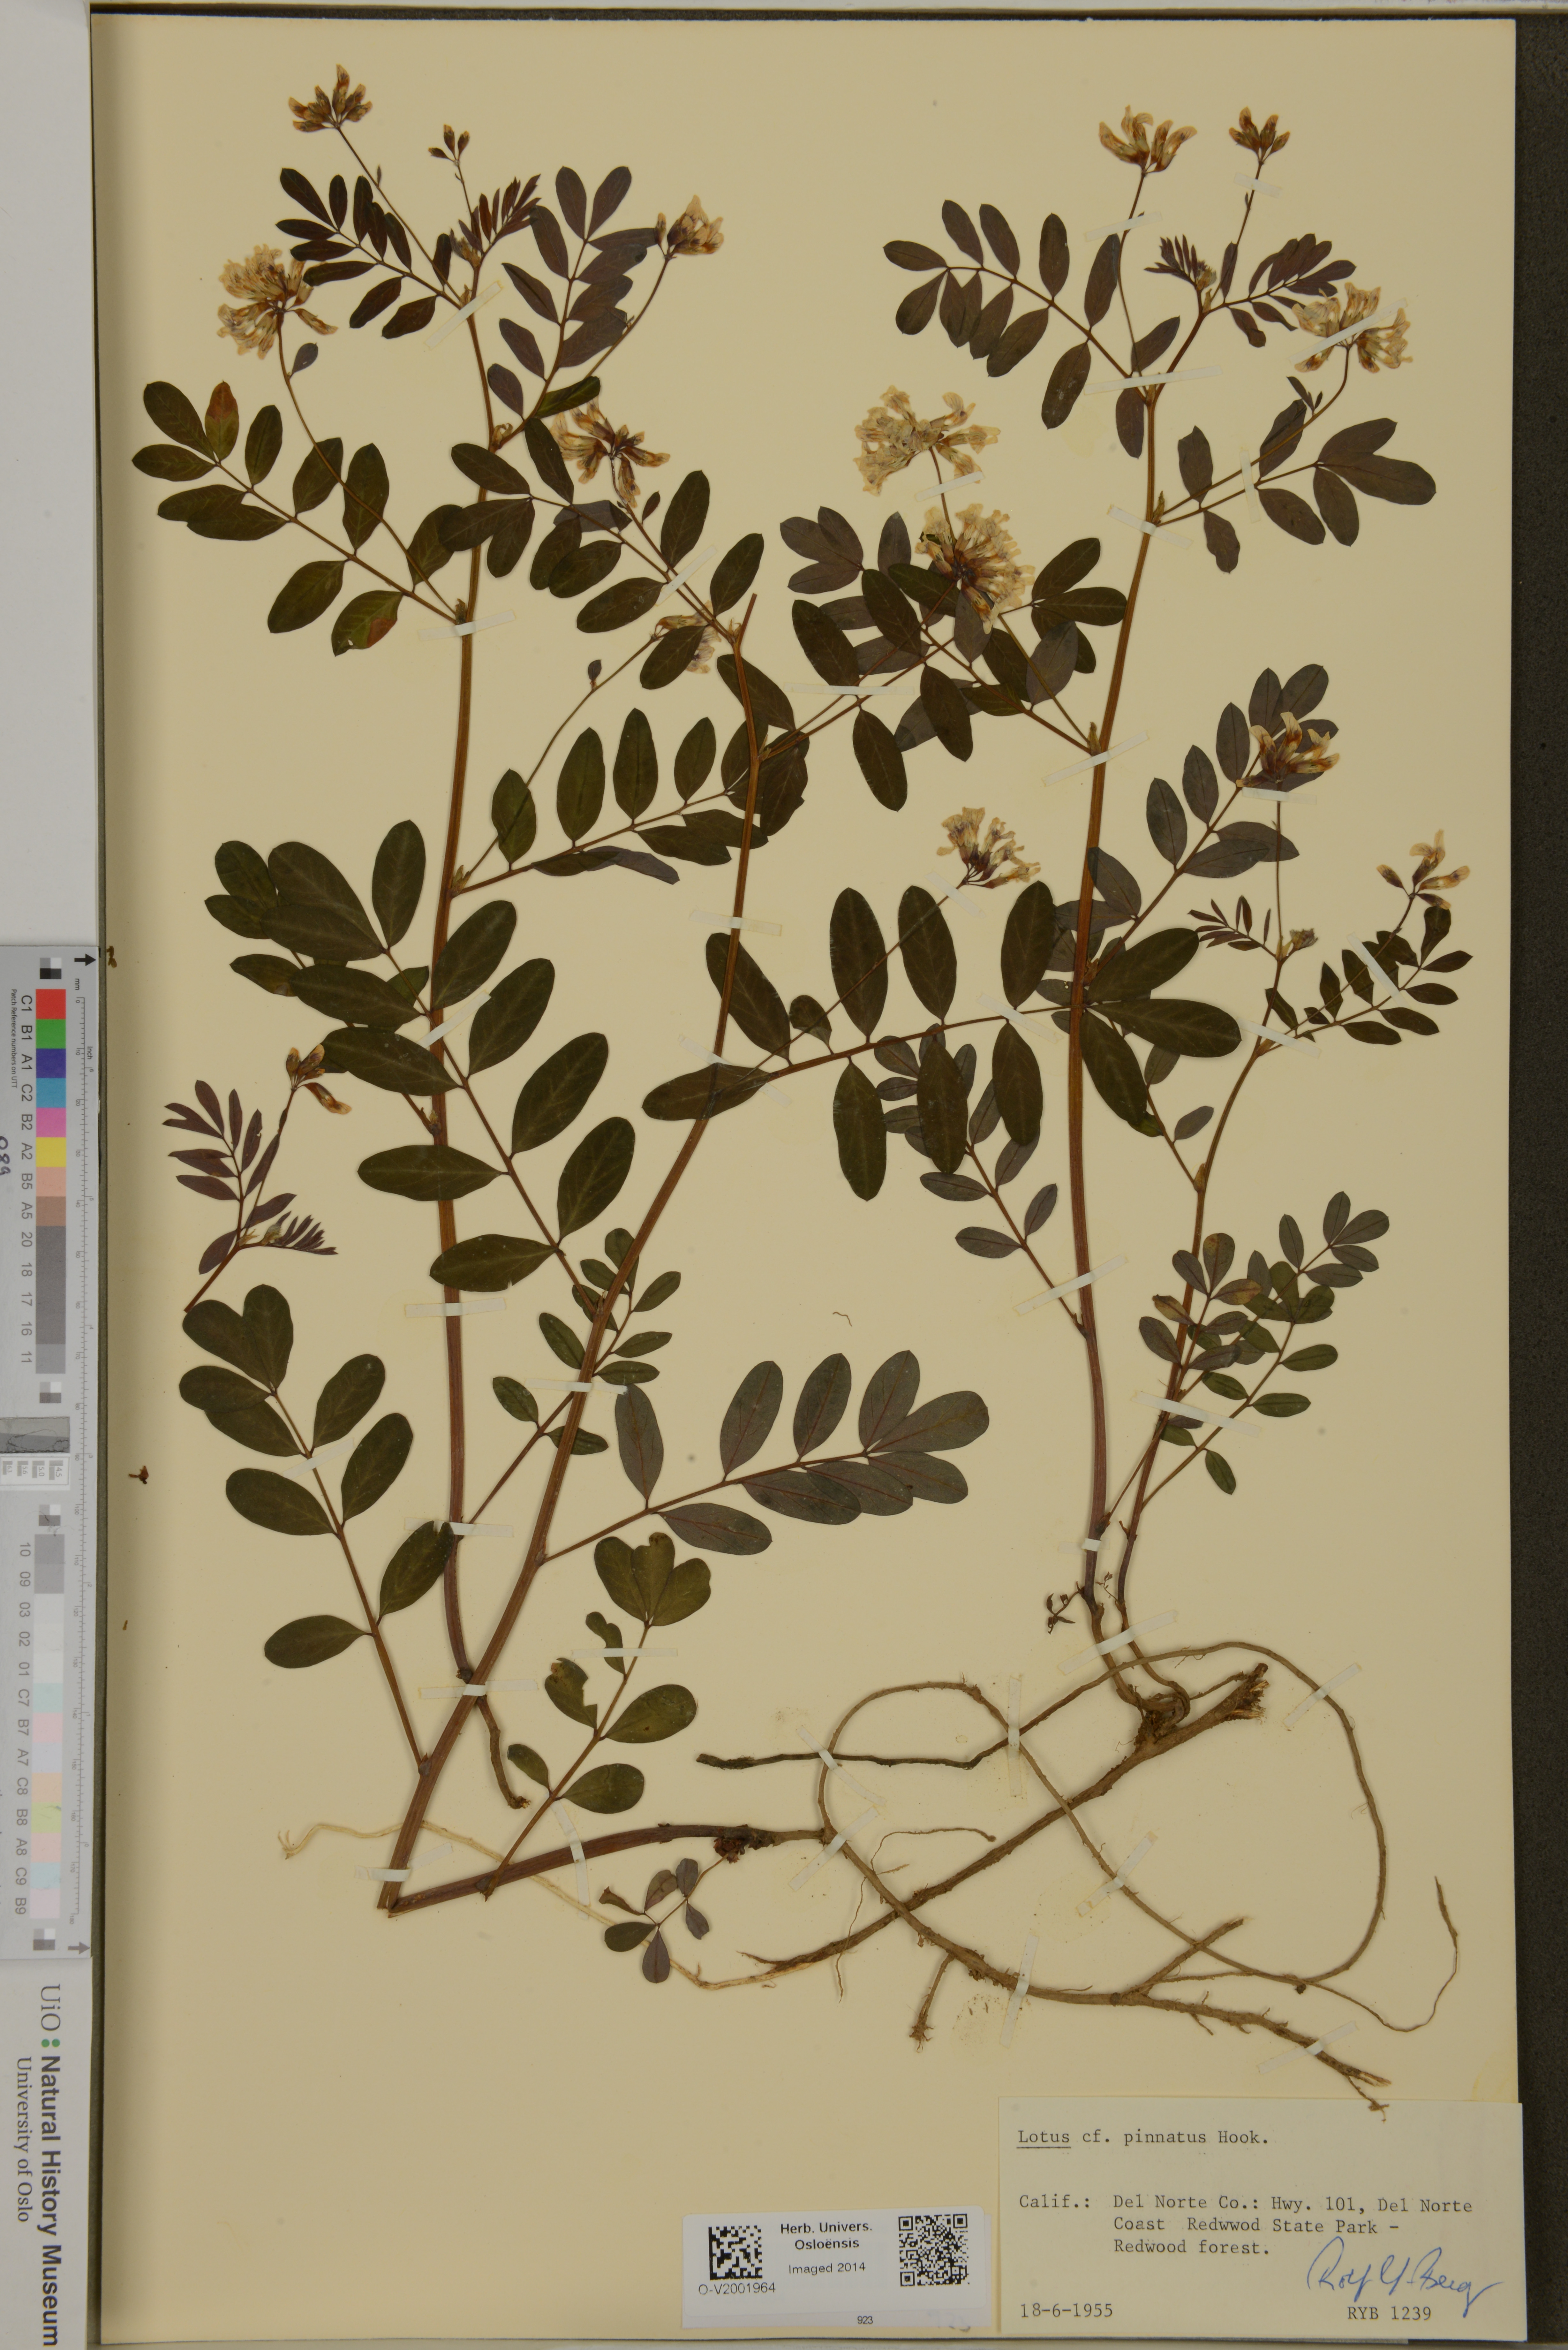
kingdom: Plantae
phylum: Tracheophyta
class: Magnoliopsida
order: Fabales
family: Fabaceae
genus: Hosackia
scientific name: Hosackia pinnata
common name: Bog bird's-foot trefoil
